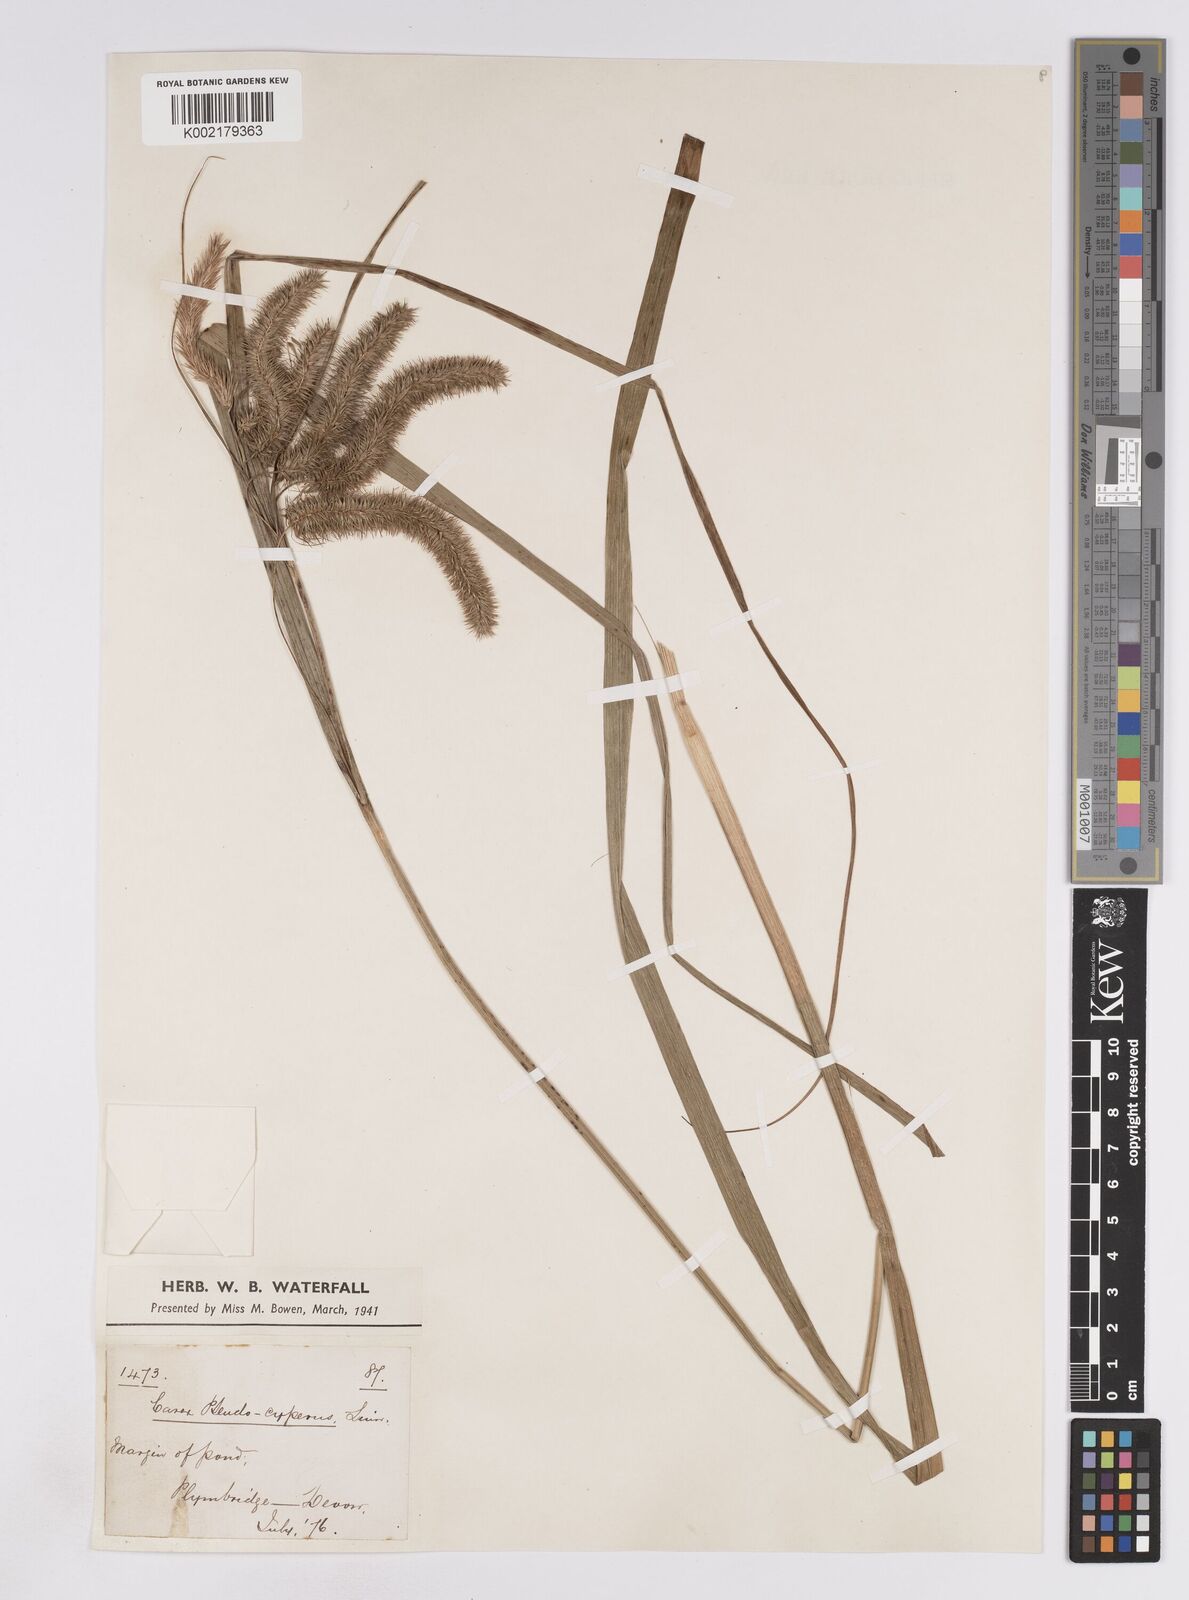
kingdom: Plantae
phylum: Tracheophyta
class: Liliopsida
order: Poales
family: Cyperaceae
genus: Carex
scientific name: Carex pseudocyperus
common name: Cyperus sedge
